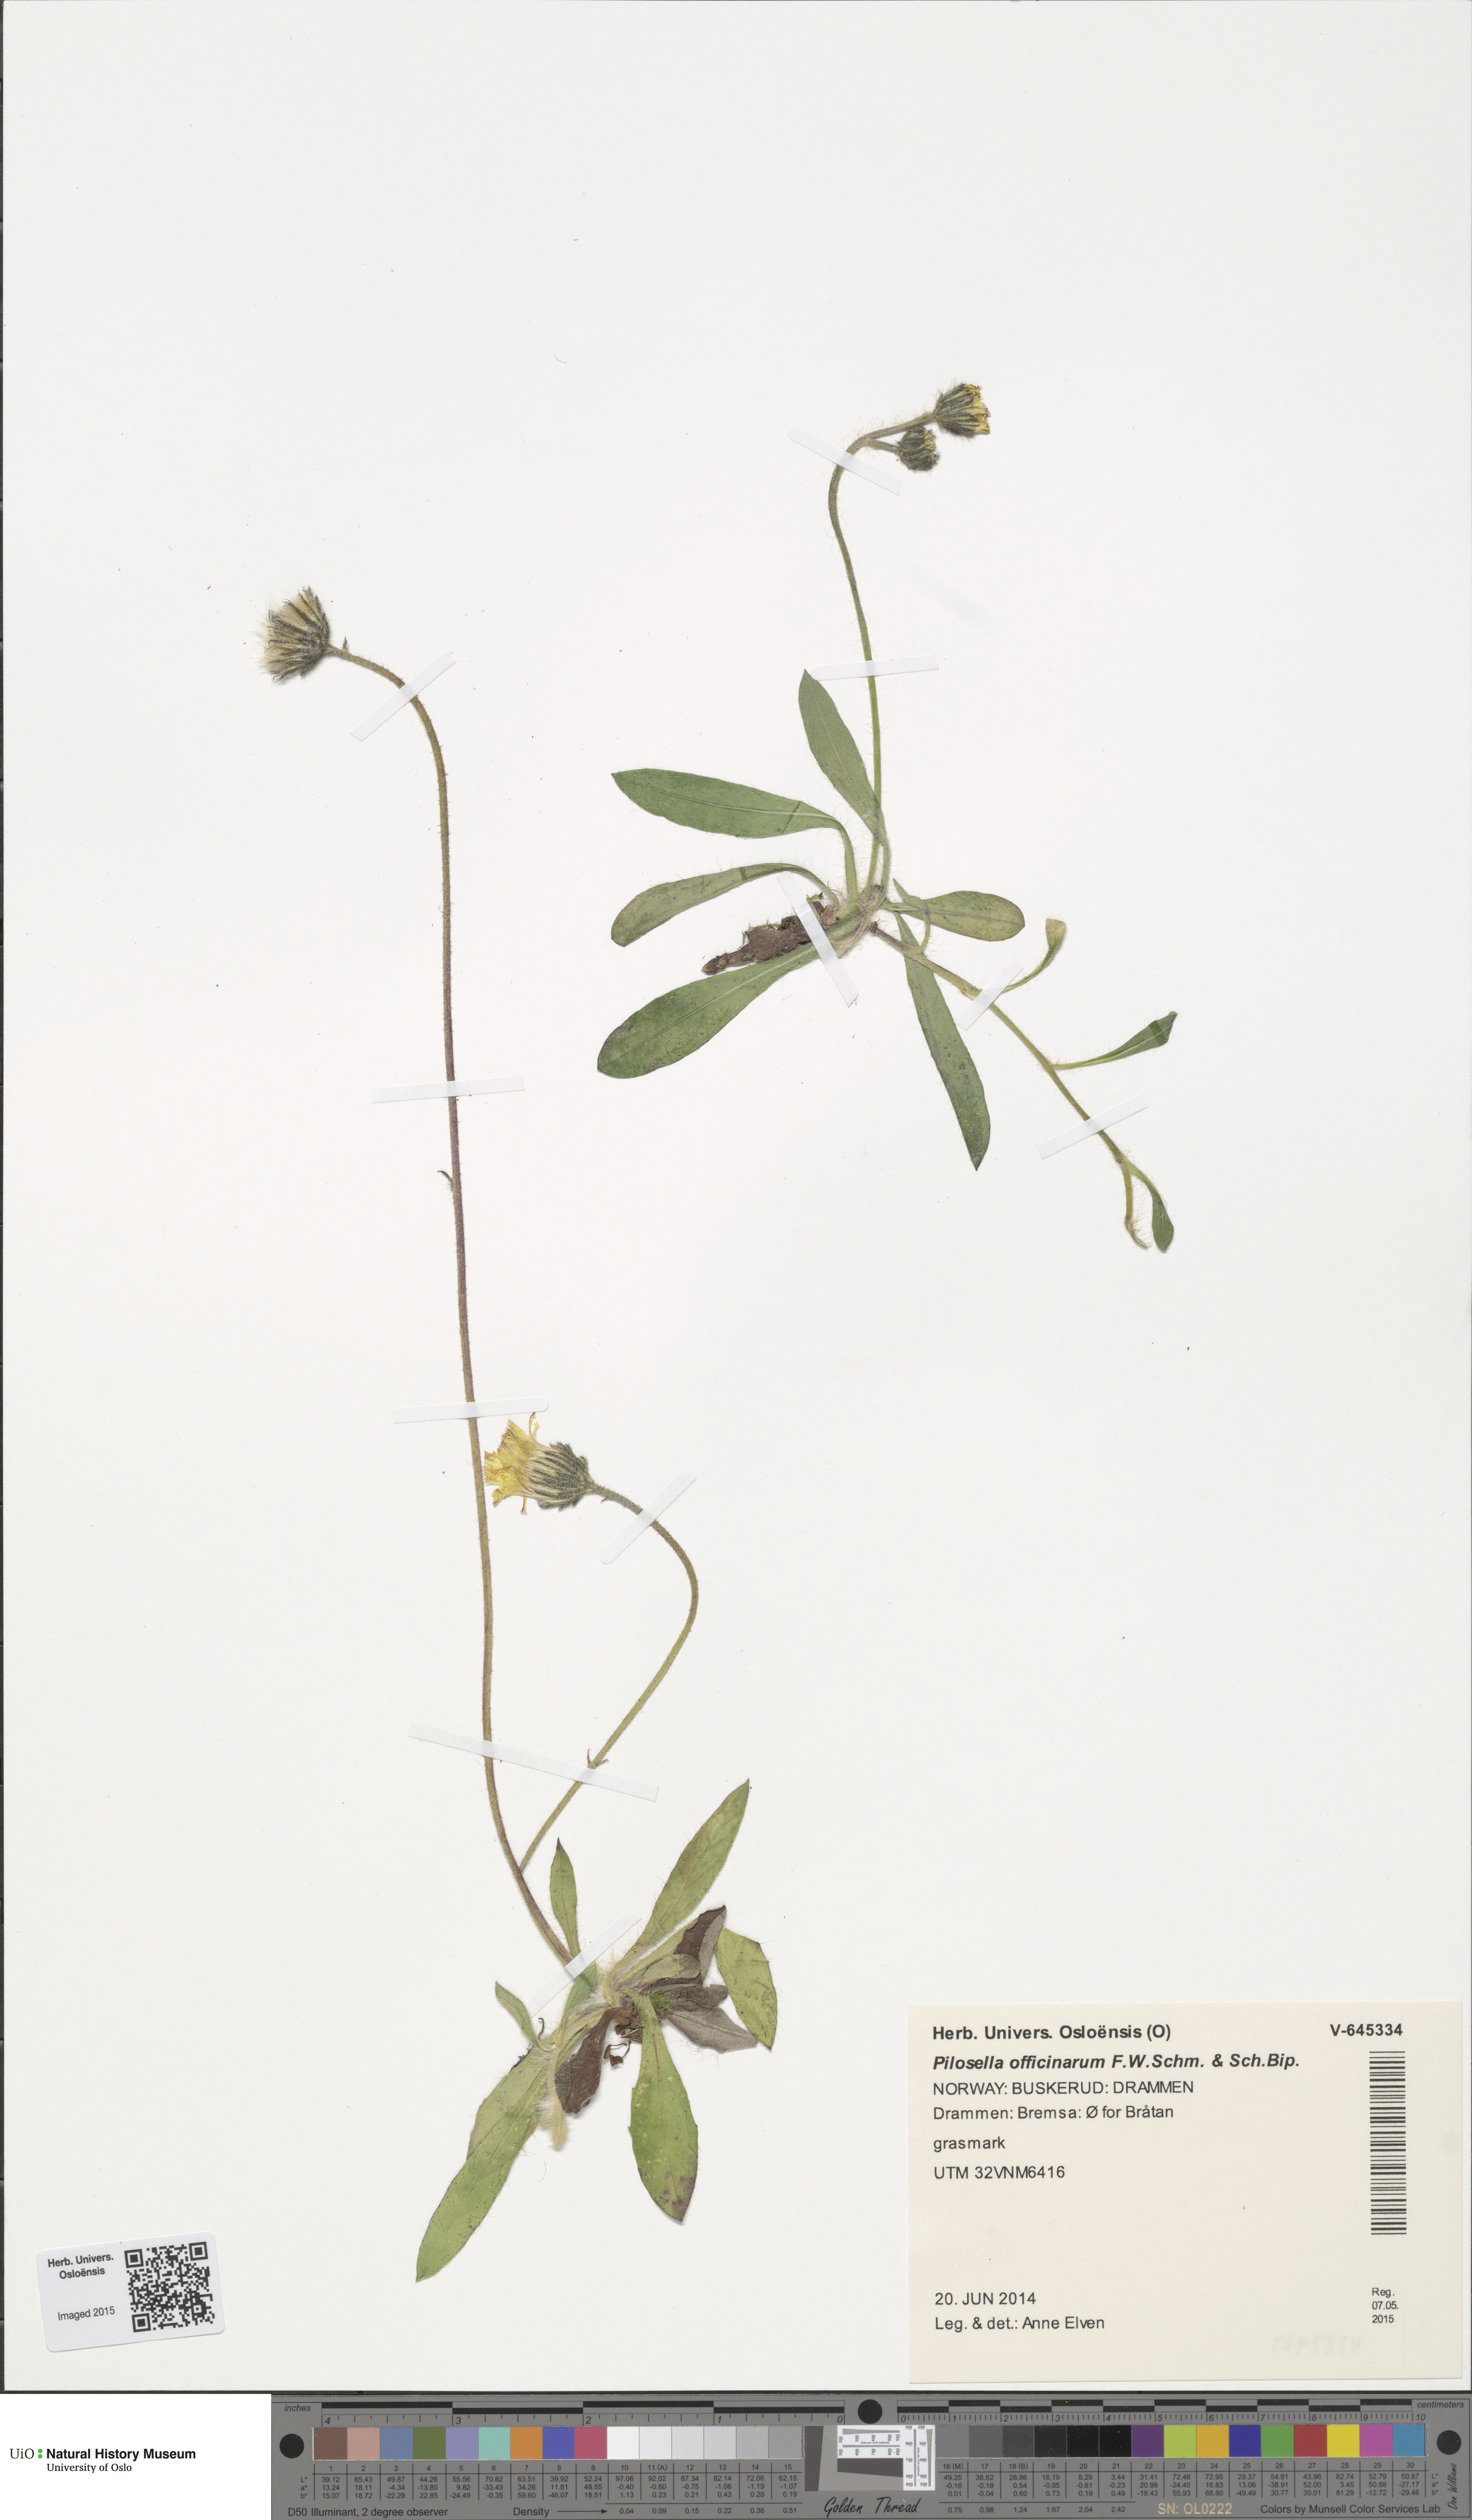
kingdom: Plantae
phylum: Tracheophyta
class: Magnoliopsida
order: Asterales
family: Asteraceae
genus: Pilosella
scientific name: Pilosella officinarum
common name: Mouse-ear hawkweed
